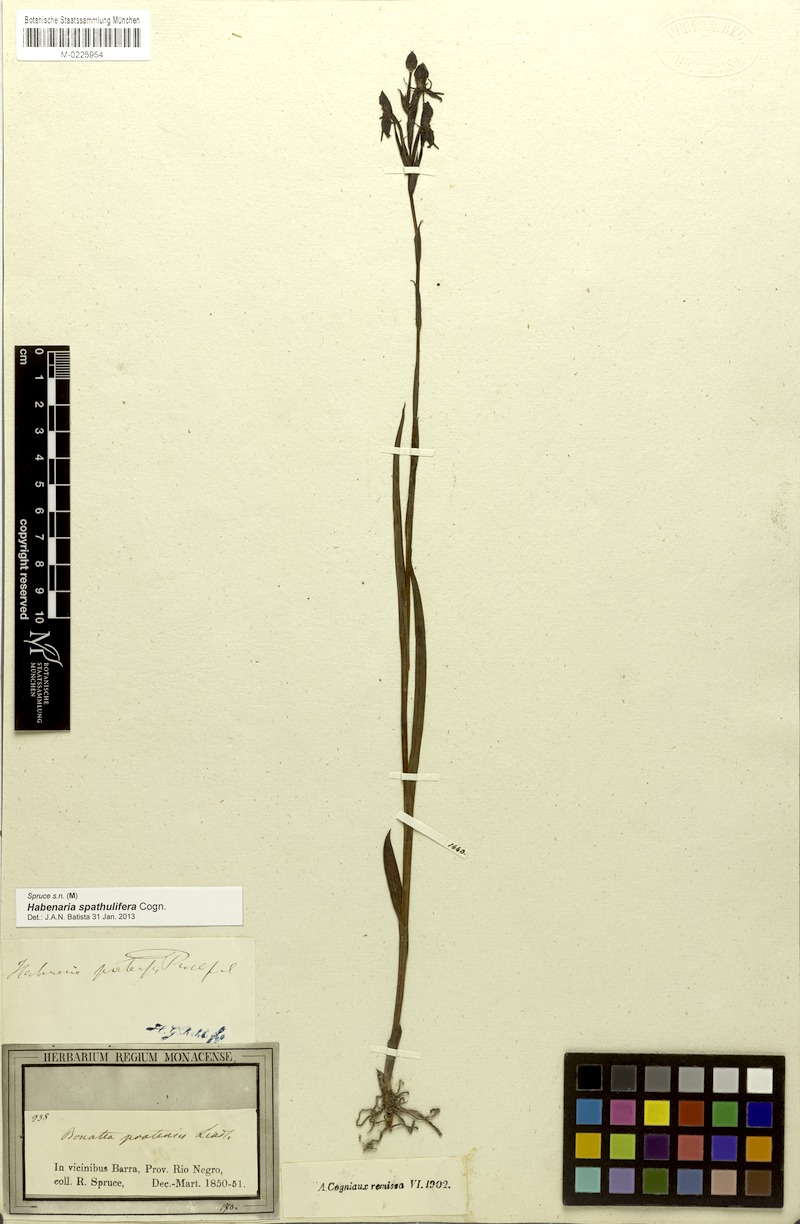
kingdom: Plantae
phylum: Tracheophyta
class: Liliopsida
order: Asparagales
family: Orchidaceae
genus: Habenaria
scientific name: Habenaria spathulifera
